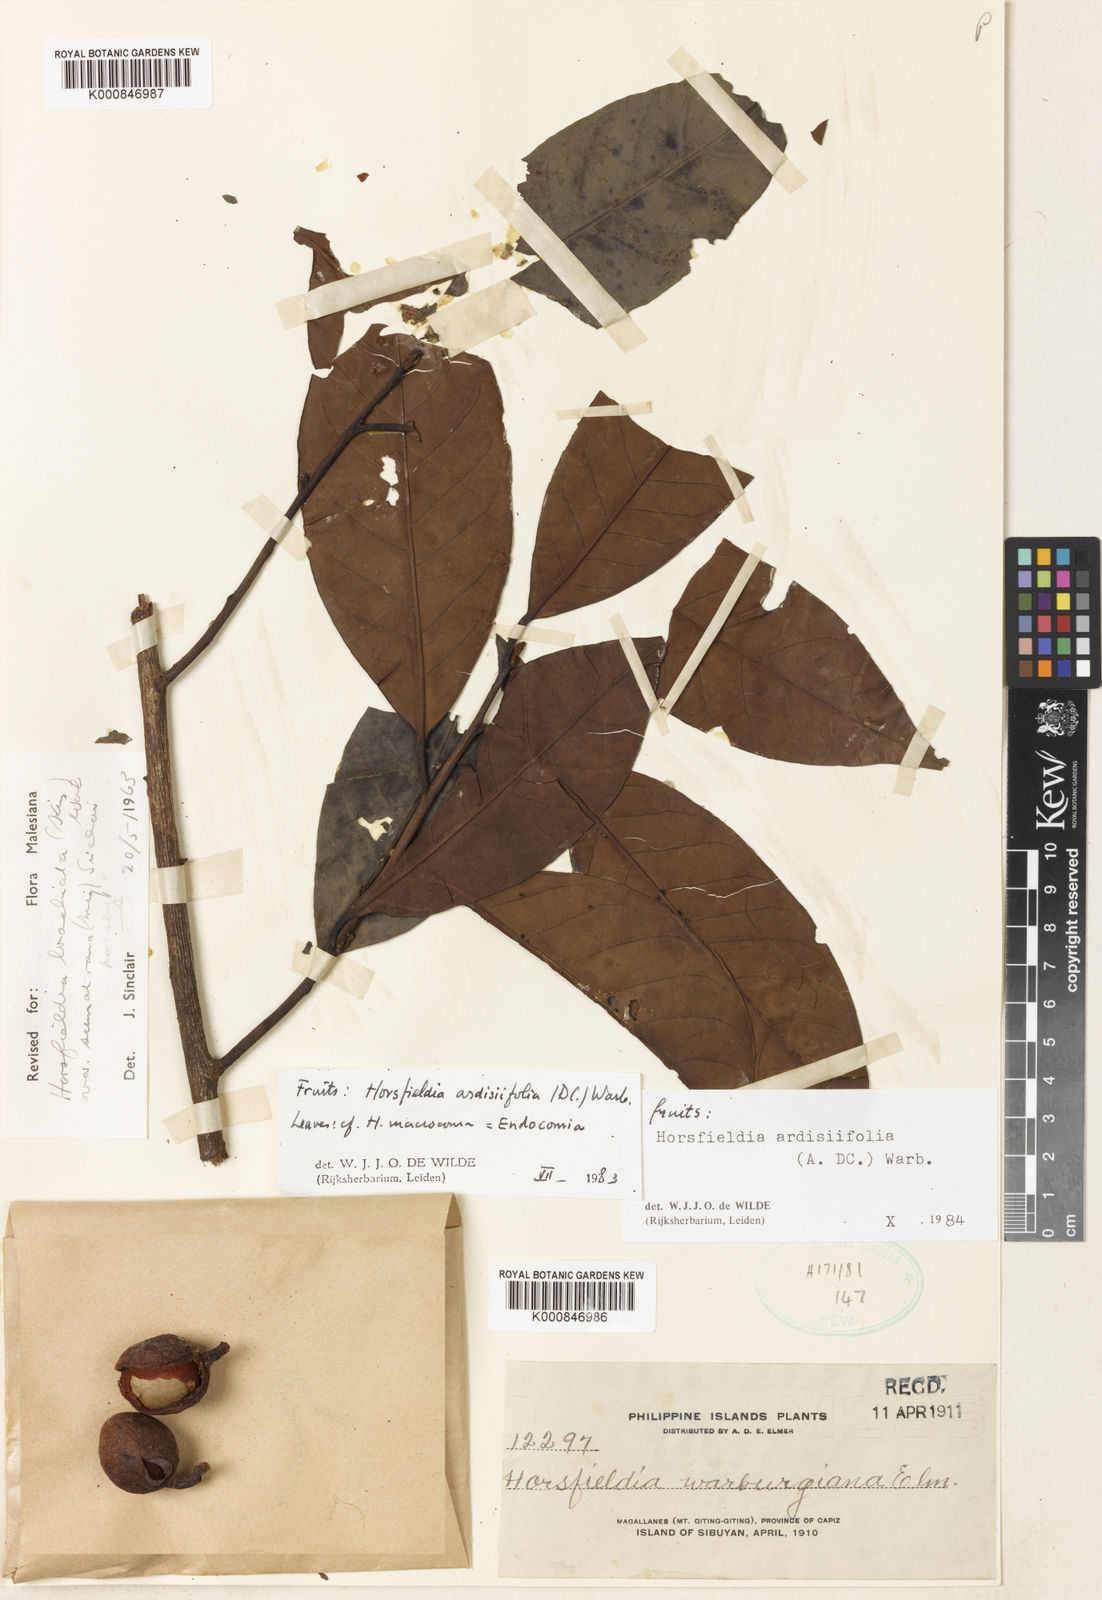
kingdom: Plantae
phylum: Tracheophyta
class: Magnoliopsida
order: Magnoliales
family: Myristicaceae
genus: Horsfieldia
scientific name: Horsfieldia ardisiifolia
